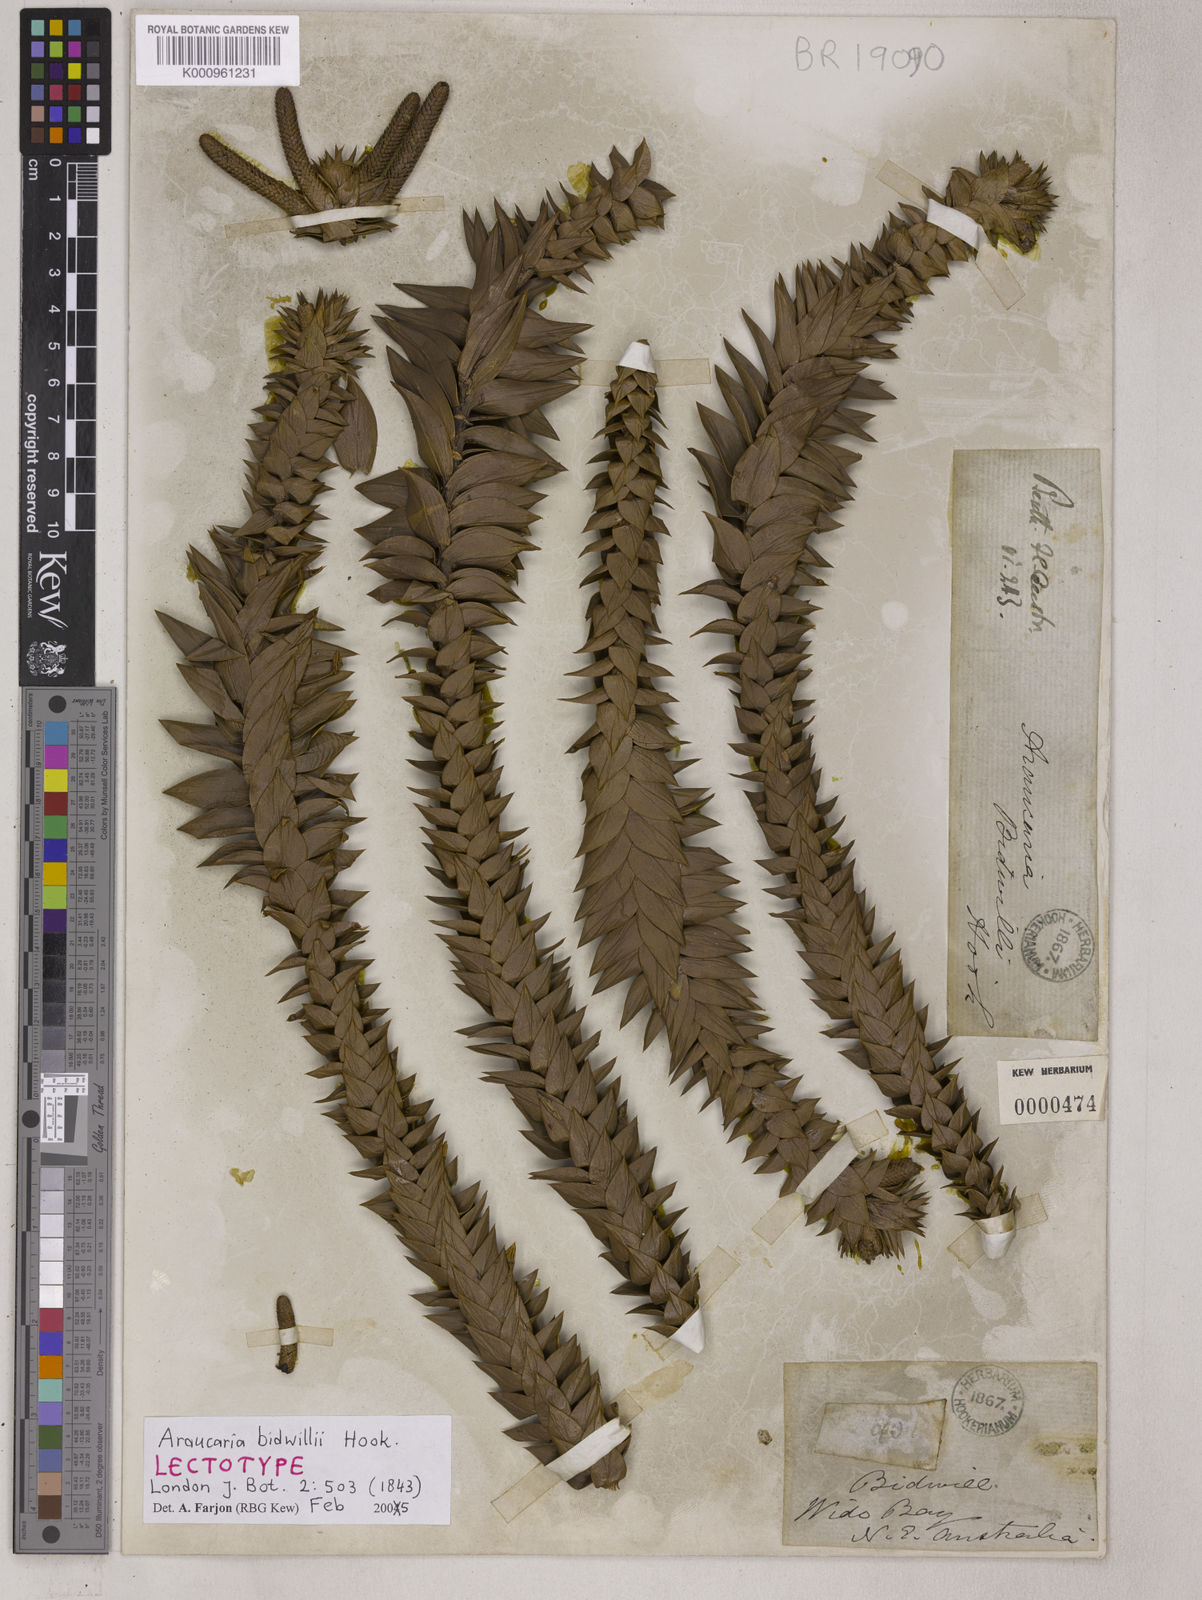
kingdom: Plantae
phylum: Tracheophyta
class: Pinopsida
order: Pinales
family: Araucariaceae
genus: Araucaria
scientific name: Araucaria bidwillii
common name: Moreton-bay-pine
